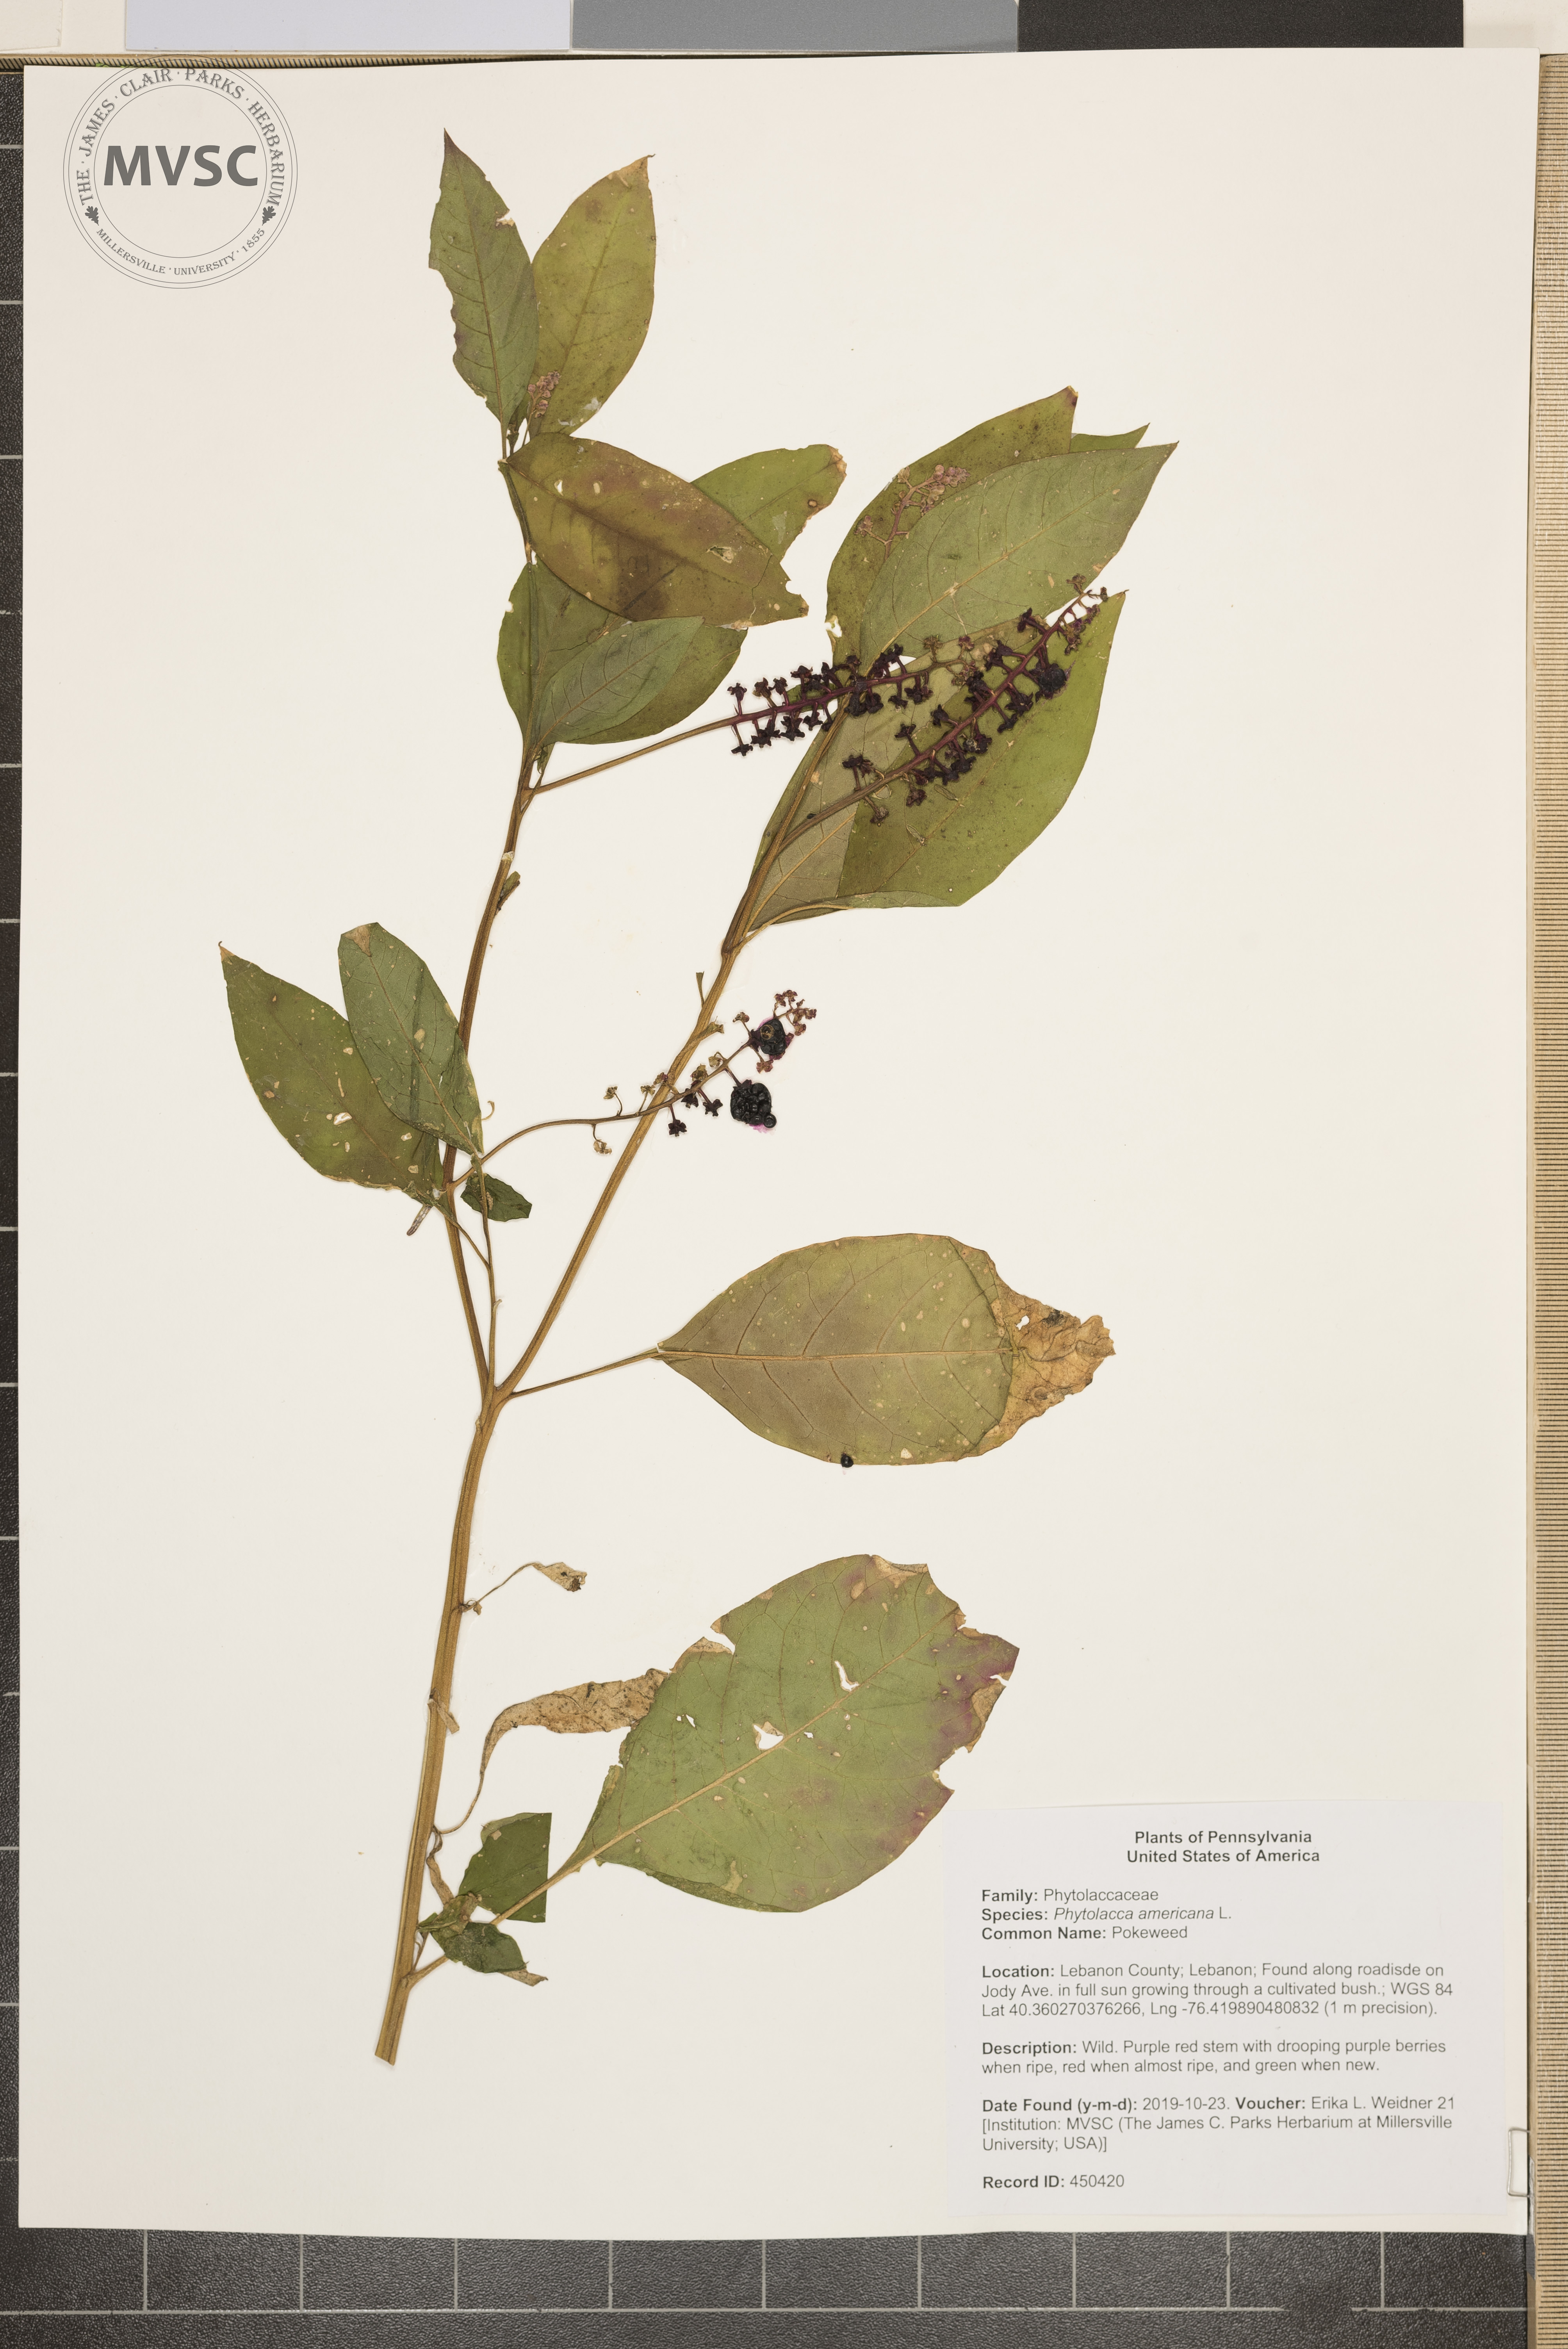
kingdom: Plantae
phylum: Tracheophyta
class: Magnoliopsida
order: Caryophyllales
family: Phytolaccaceae
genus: Phytolacca
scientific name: Phytolacca americana
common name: Pokeweed
